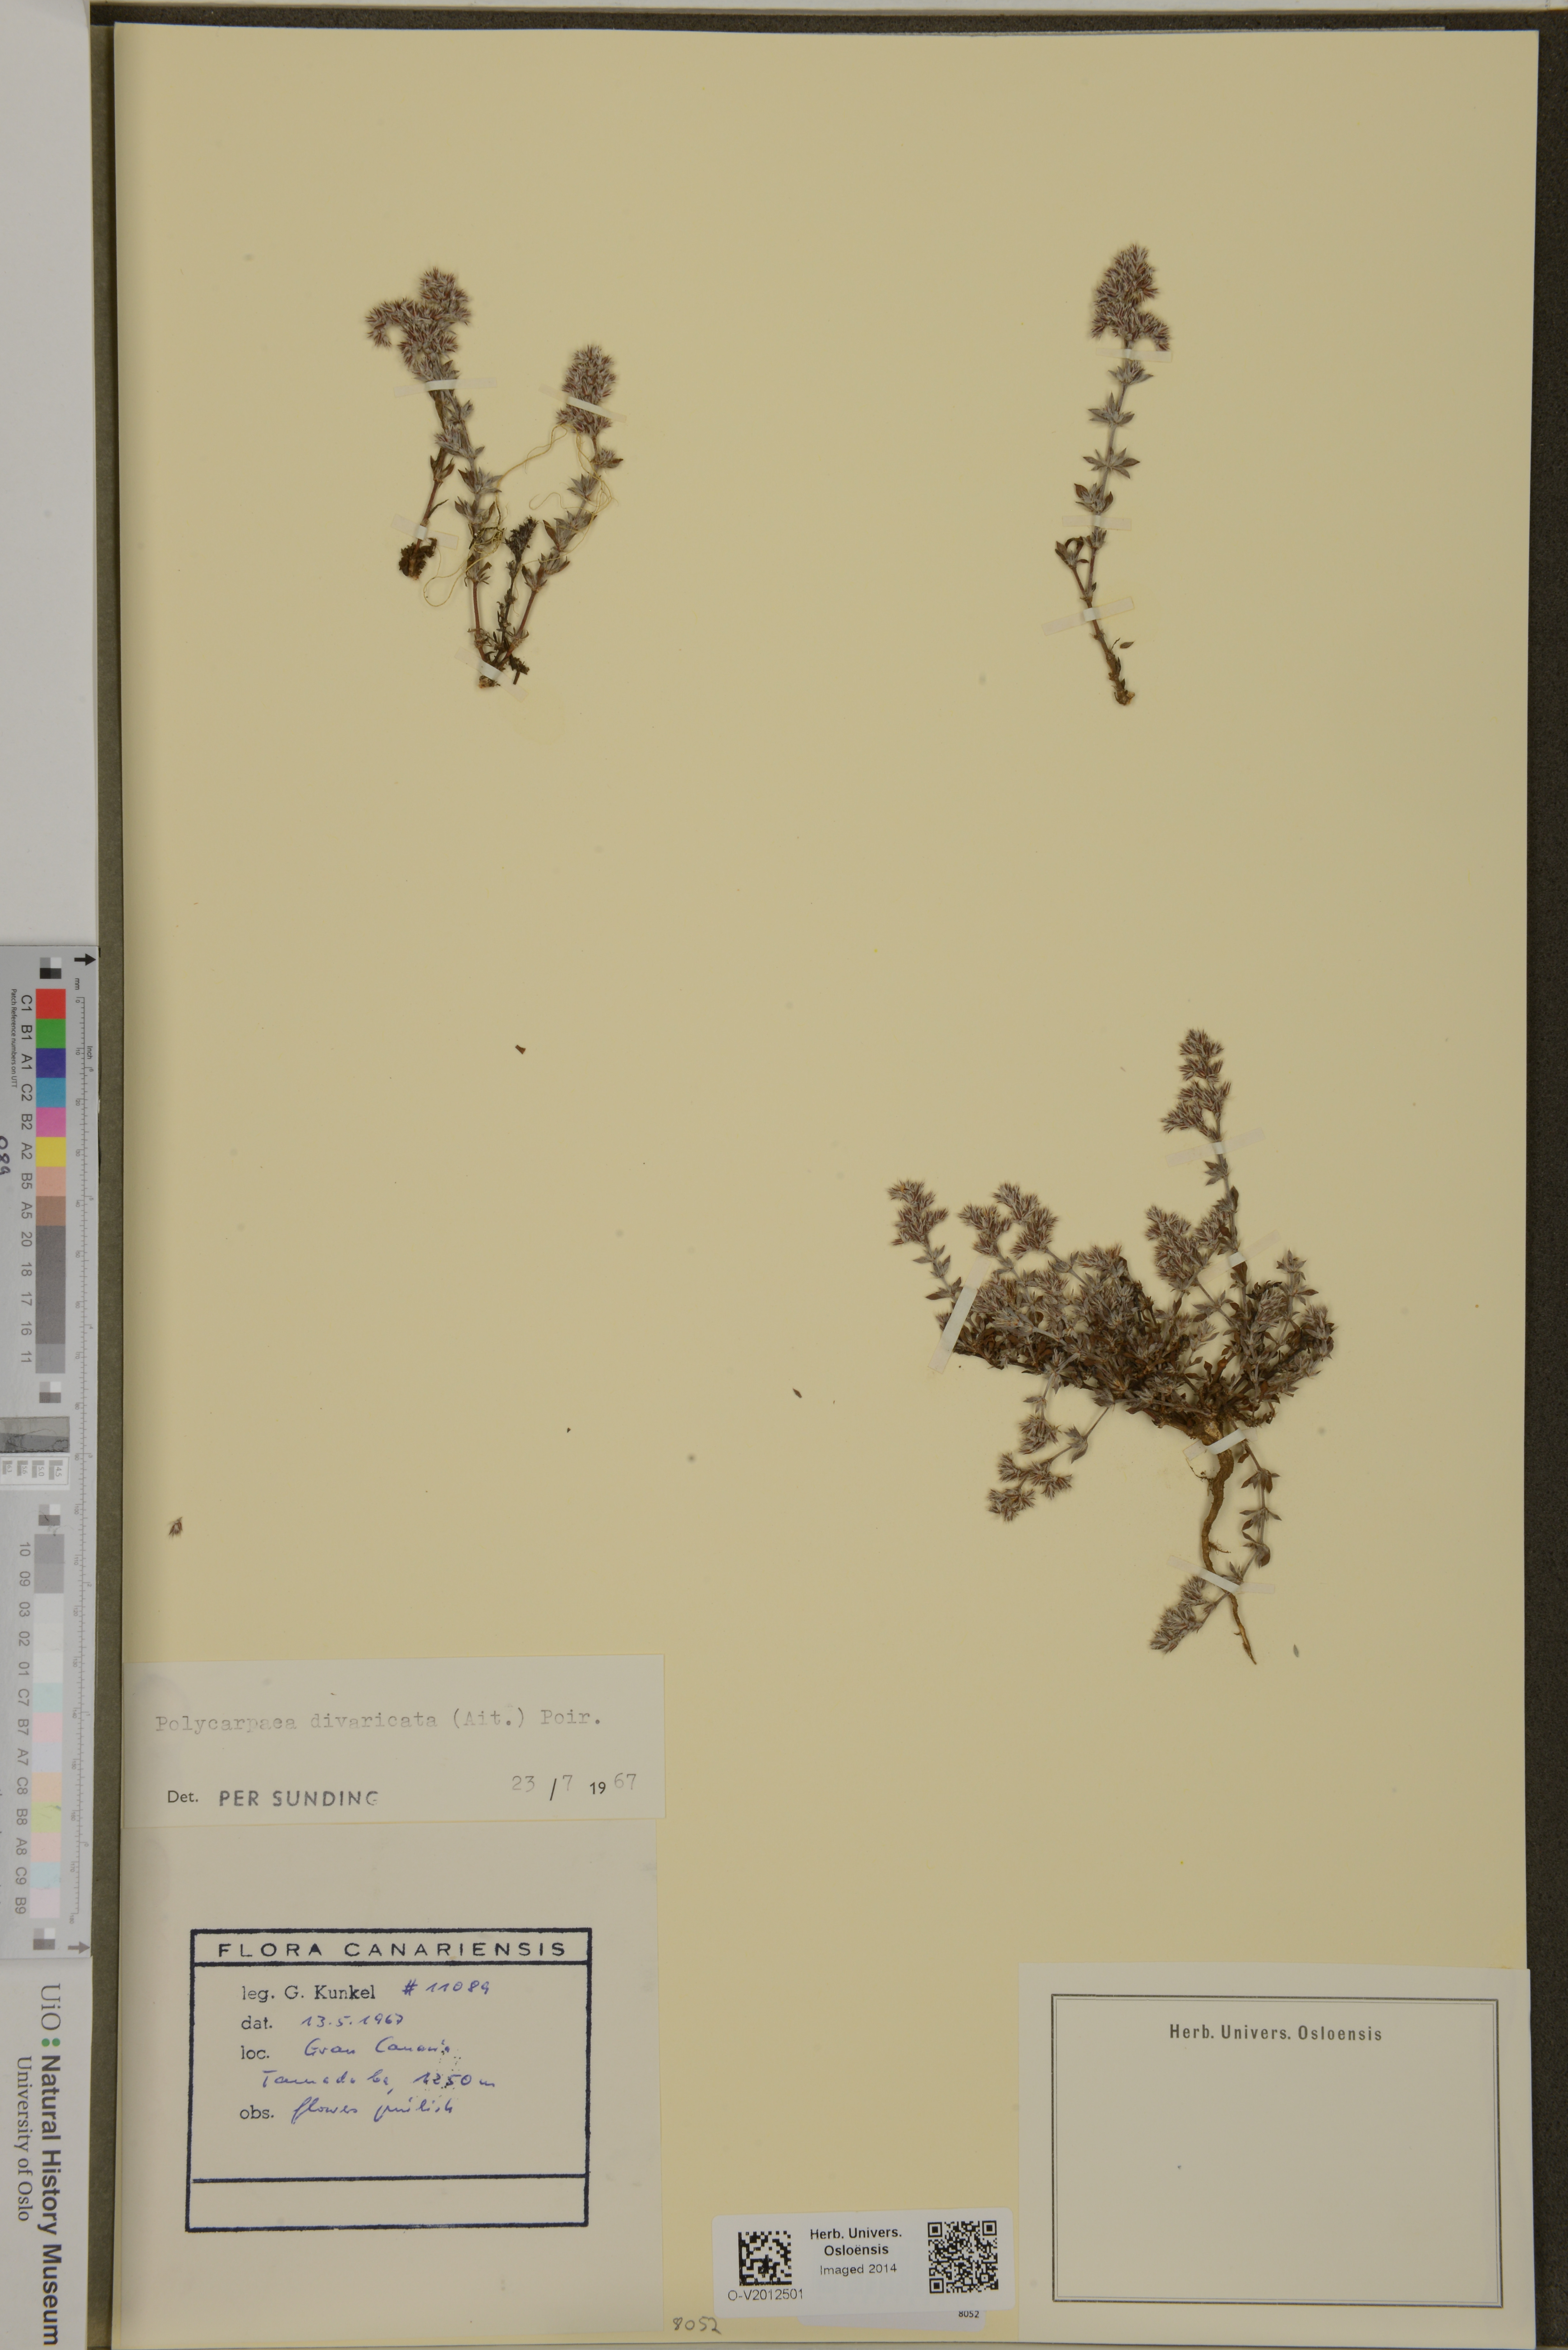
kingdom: Plantae
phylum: Tracheophyta
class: Magnoliopsida
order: Caryophyllales
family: Caryophyllaceae
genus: Polycarpaea
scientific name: Polycarpaea divaricata
